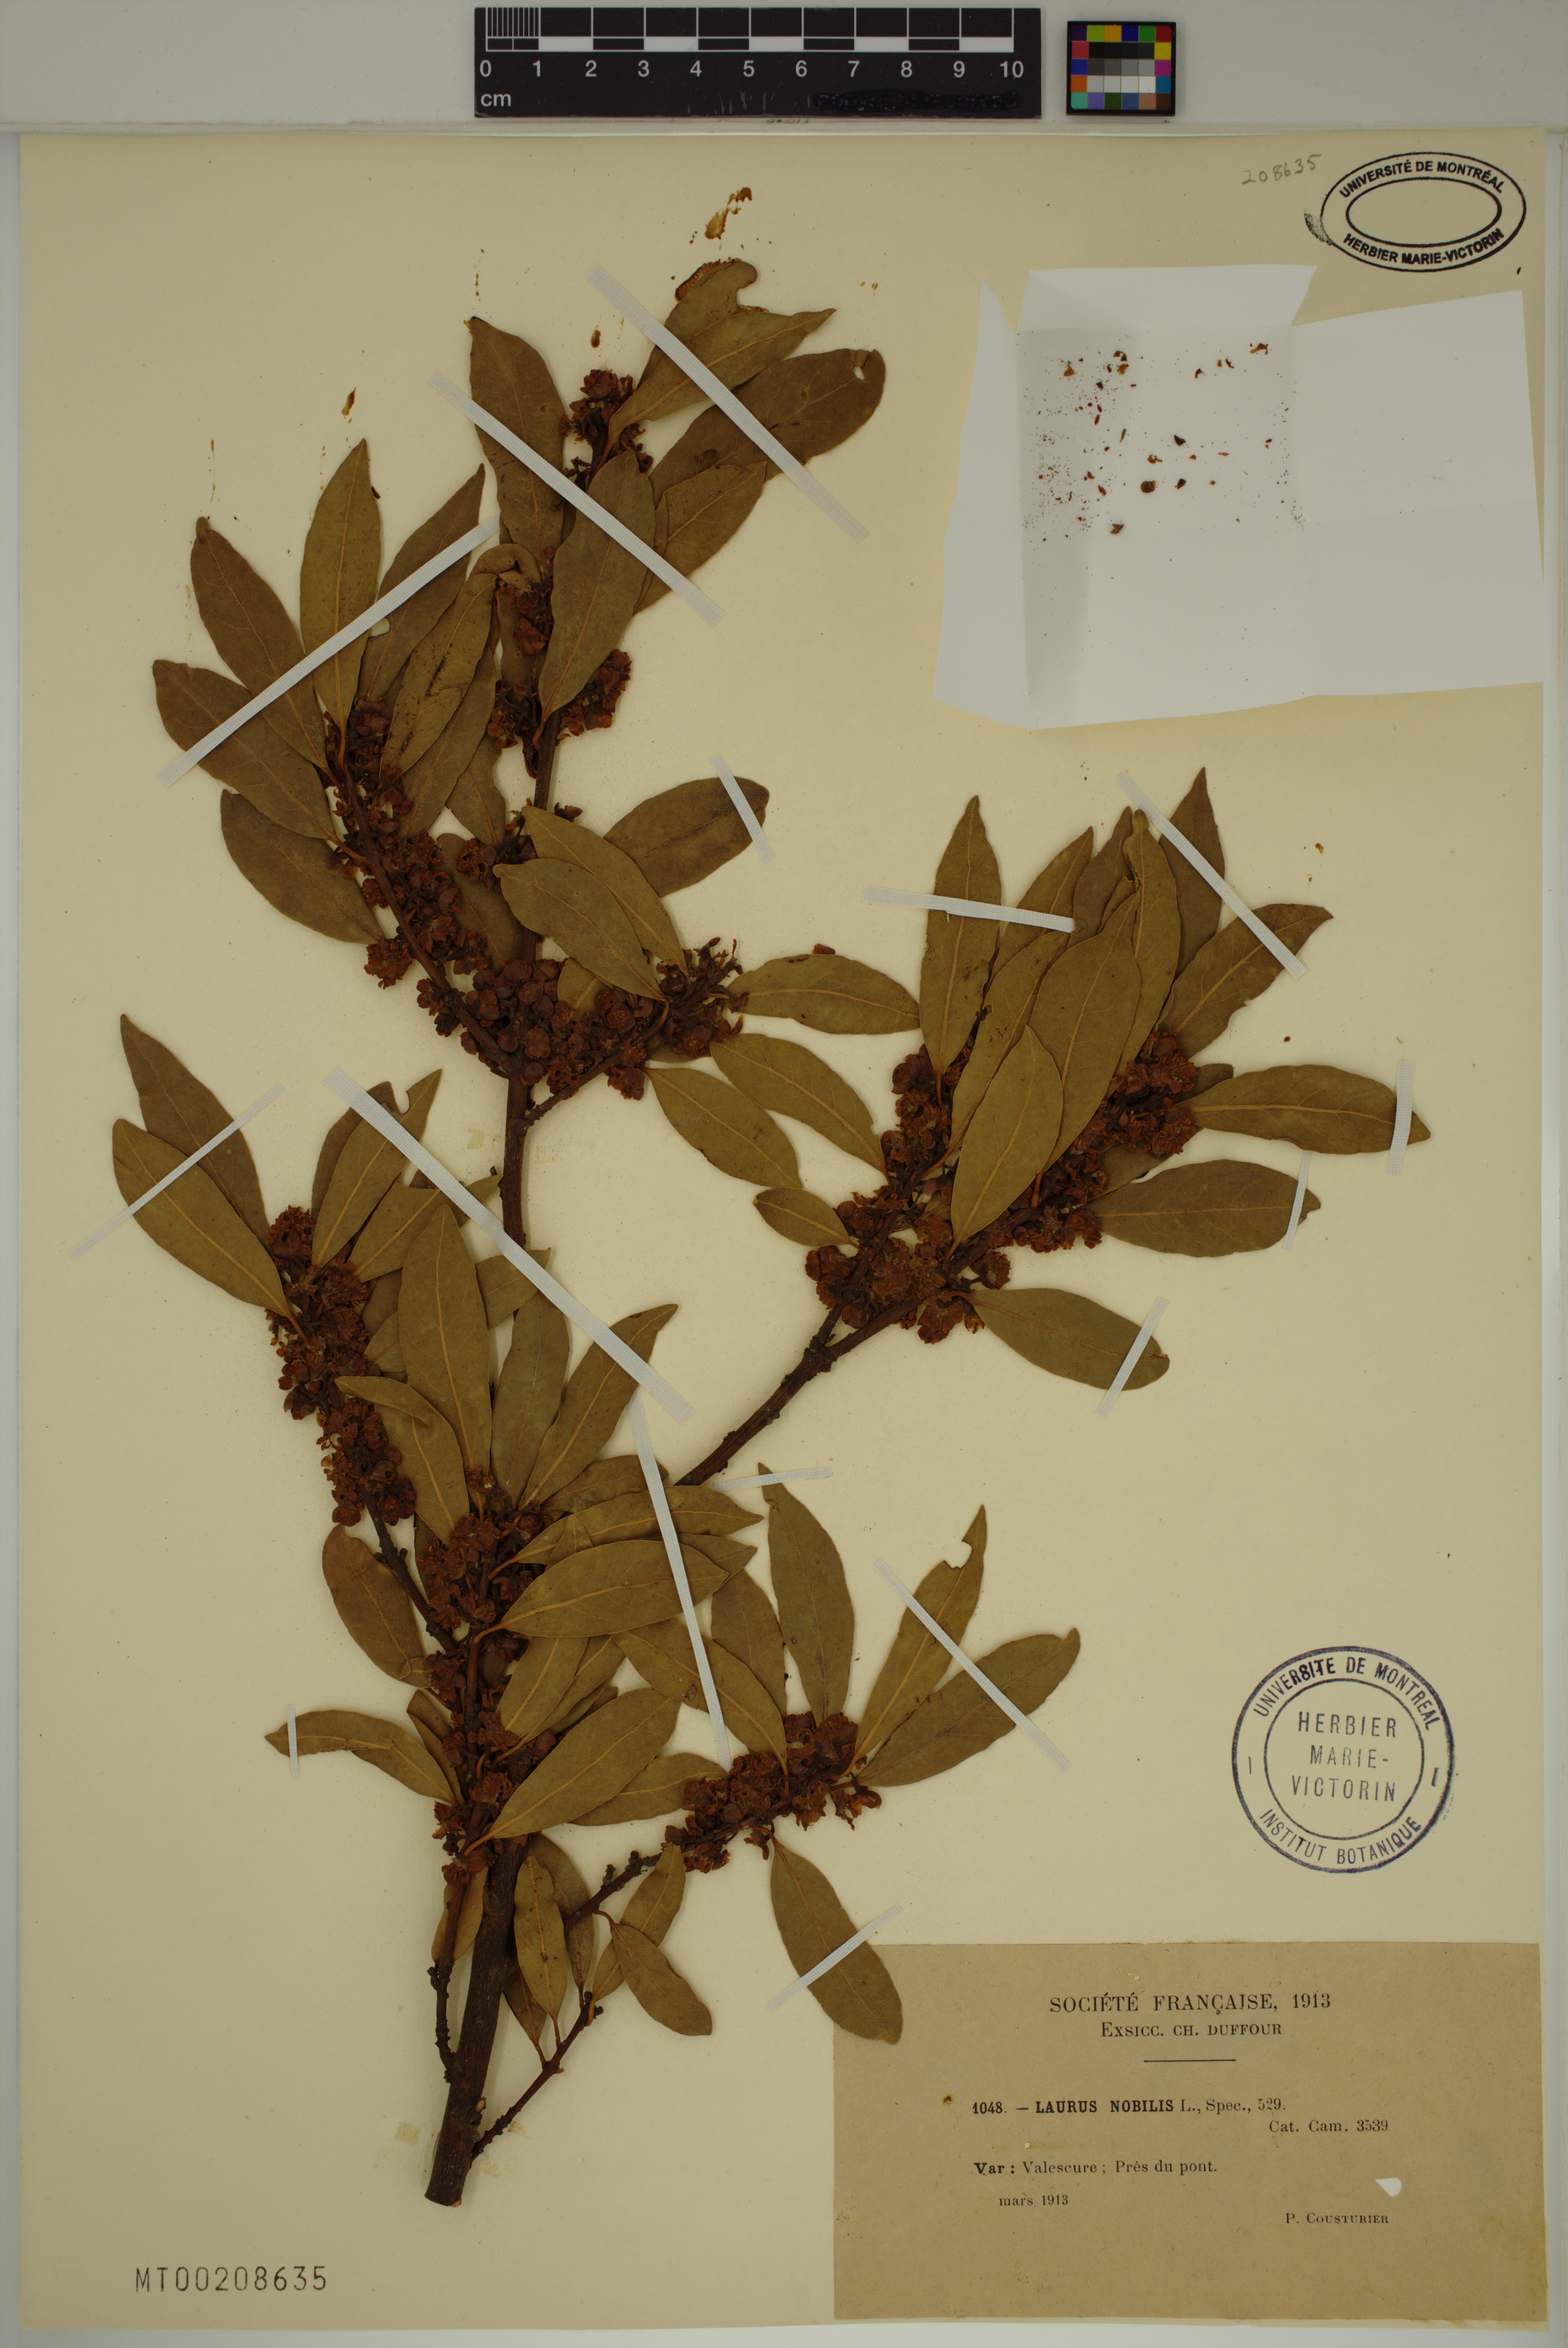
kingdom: Plantae
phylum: Tracheophyta
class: Magnoliopsida
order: Laurales
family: Lauraceae
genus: Laurus
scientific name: Laurus nobilis
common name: Bay
